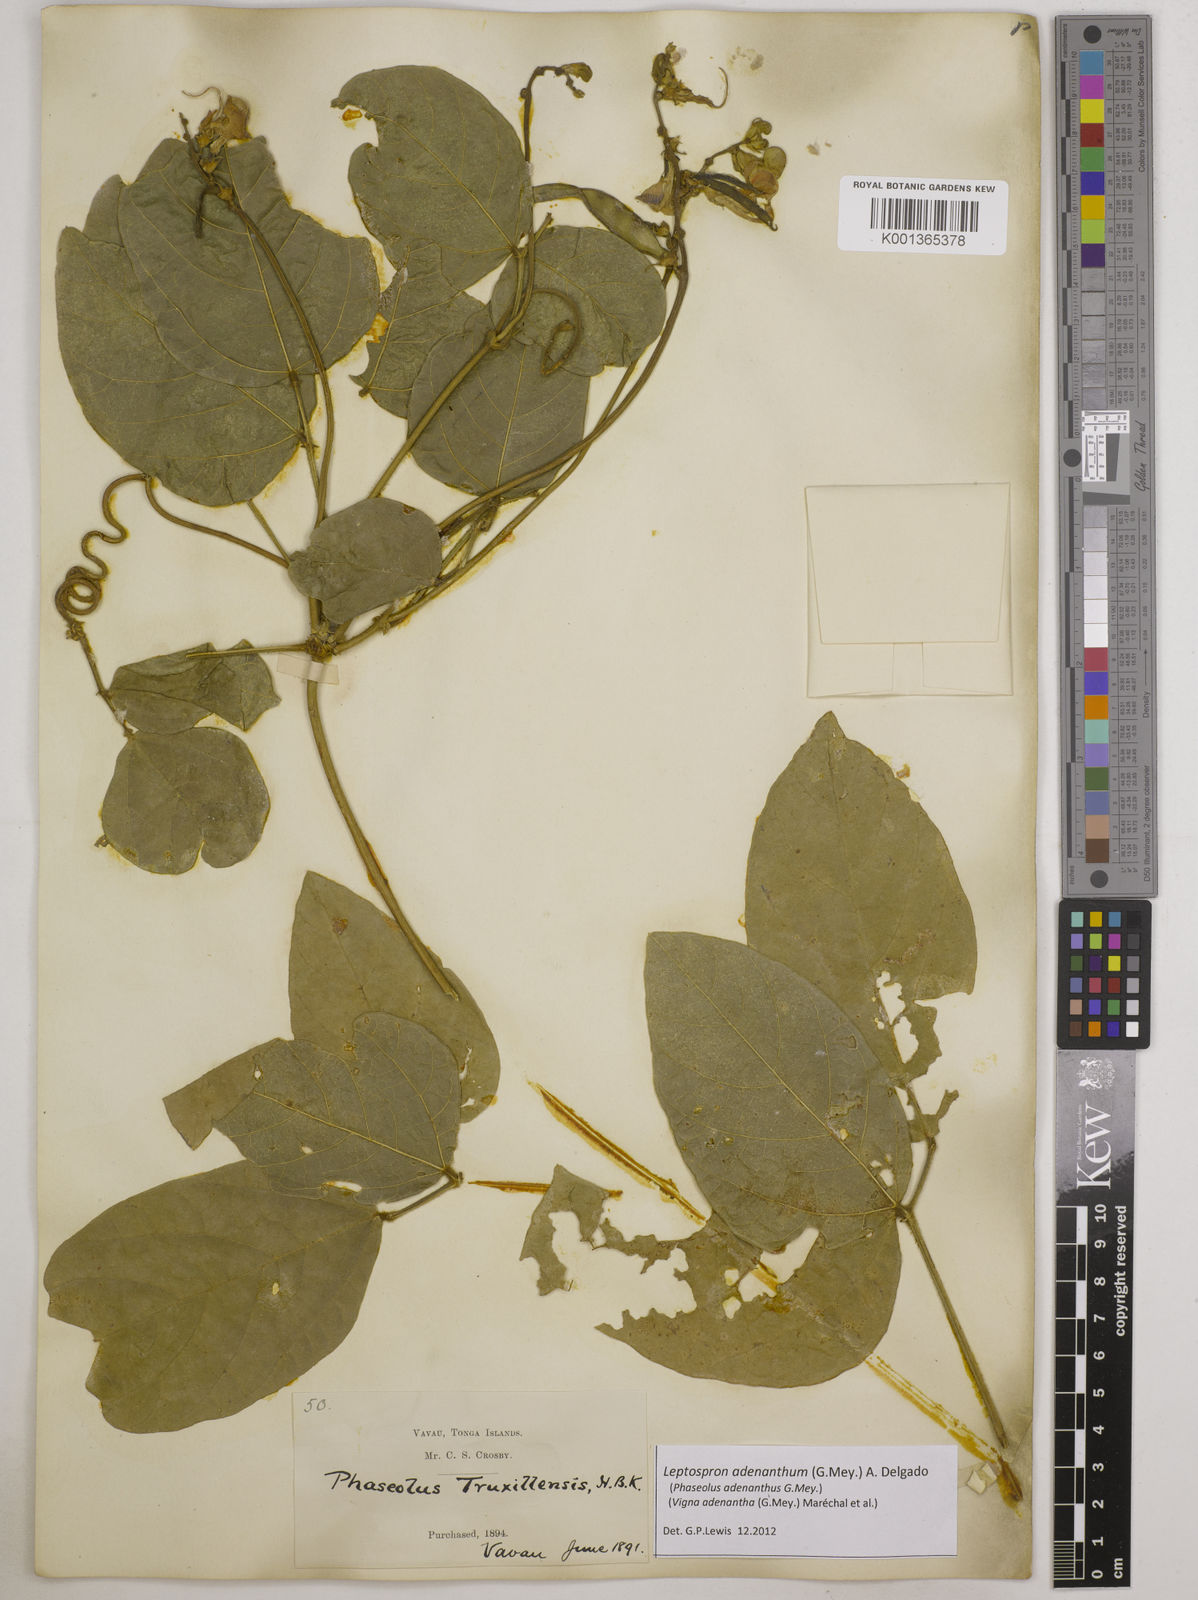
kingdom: Plantae
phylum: Tracheophyta
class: Magnoliopsida
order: Fabales
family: Fabaceae
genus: Leptospron
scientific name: Leptospron adenanthum
